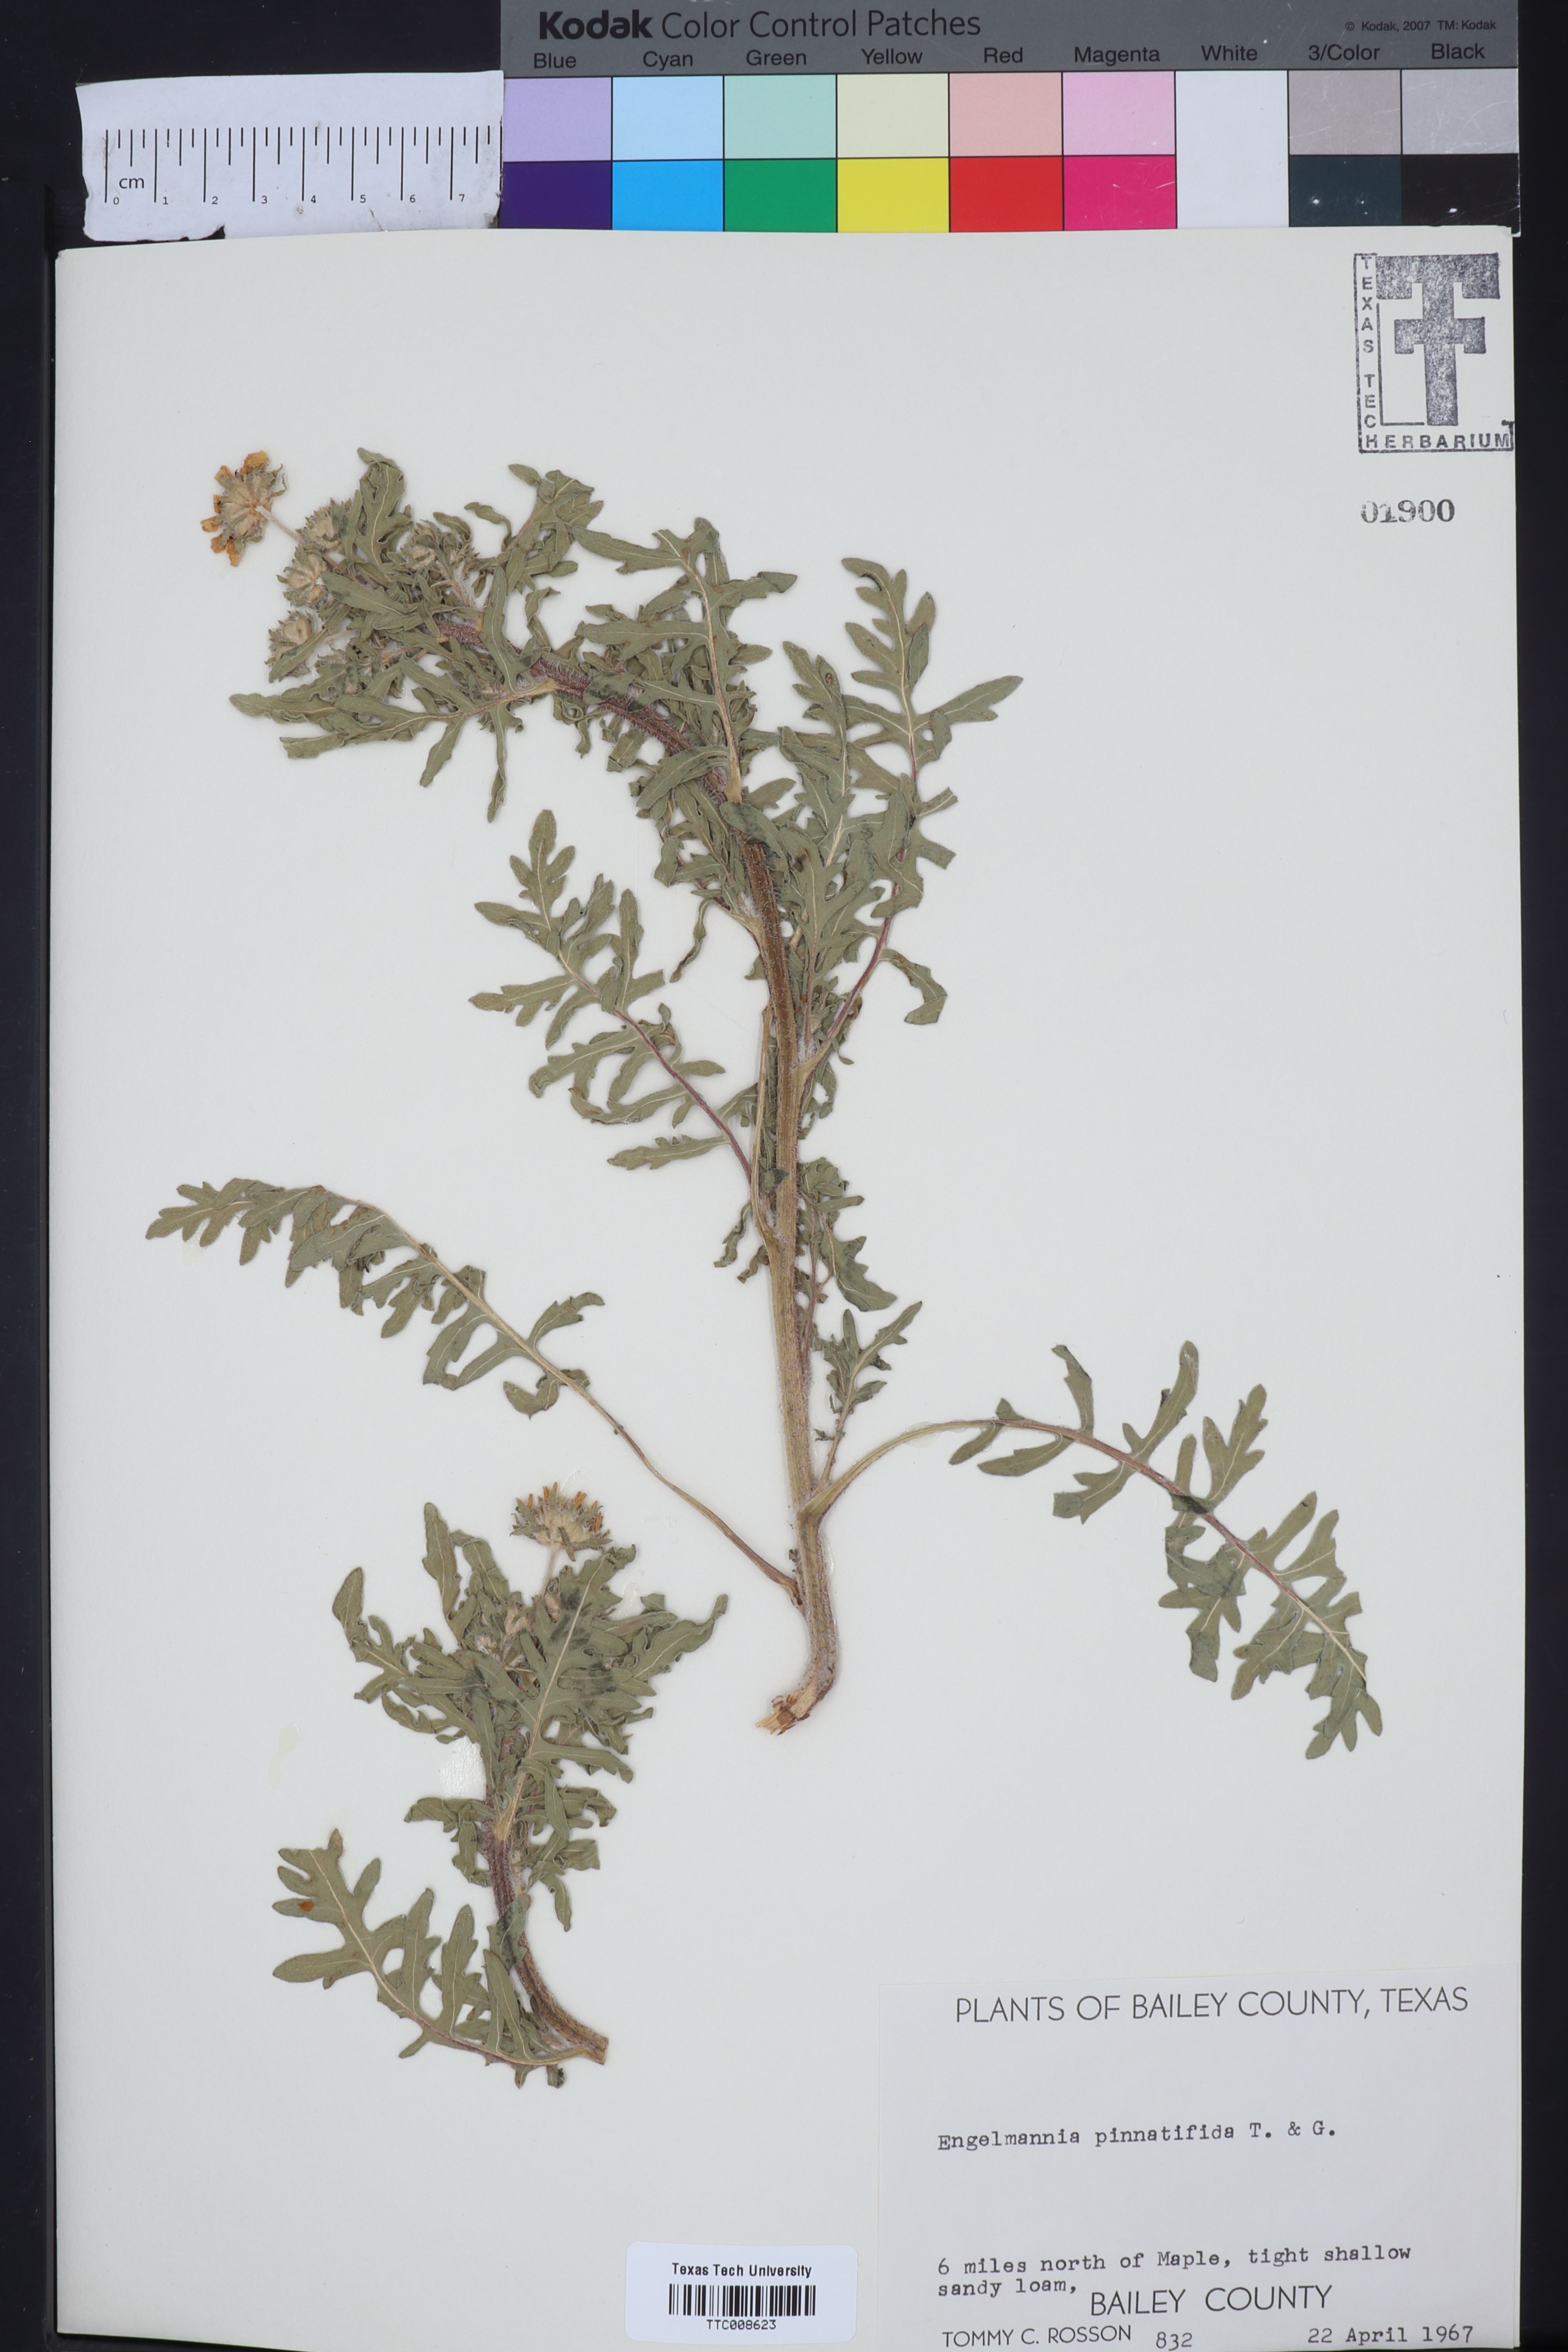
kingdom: Plantae
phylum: Tracheophyta
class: Magnoliopsida
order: Asterales
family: Asteraceae
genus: Engelmannia
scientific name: Engelmannia peristenia
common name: Engelmann's daisy
